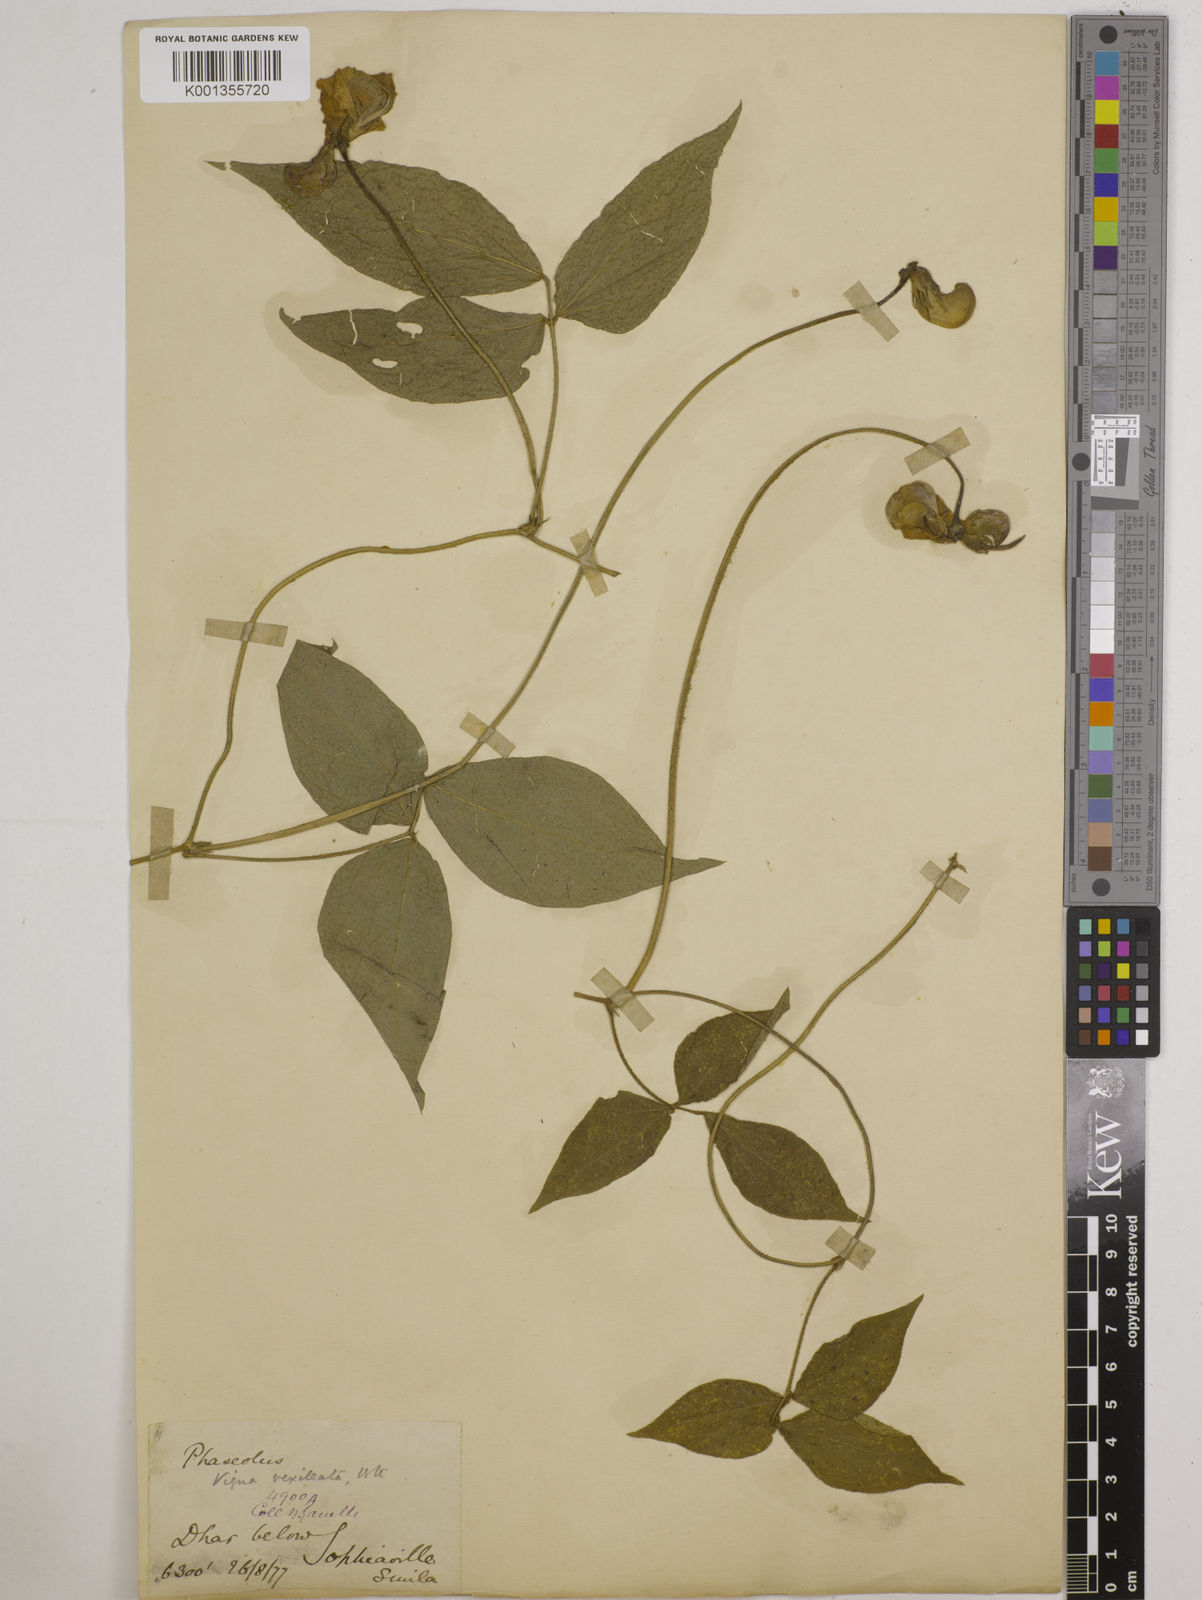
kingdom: Plantae
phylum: Tracheophyta
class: Magnoliopsida
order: Fabales
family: Fabaceae
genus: Vigna
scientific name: Vigna vexillata
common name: Zombi pea
